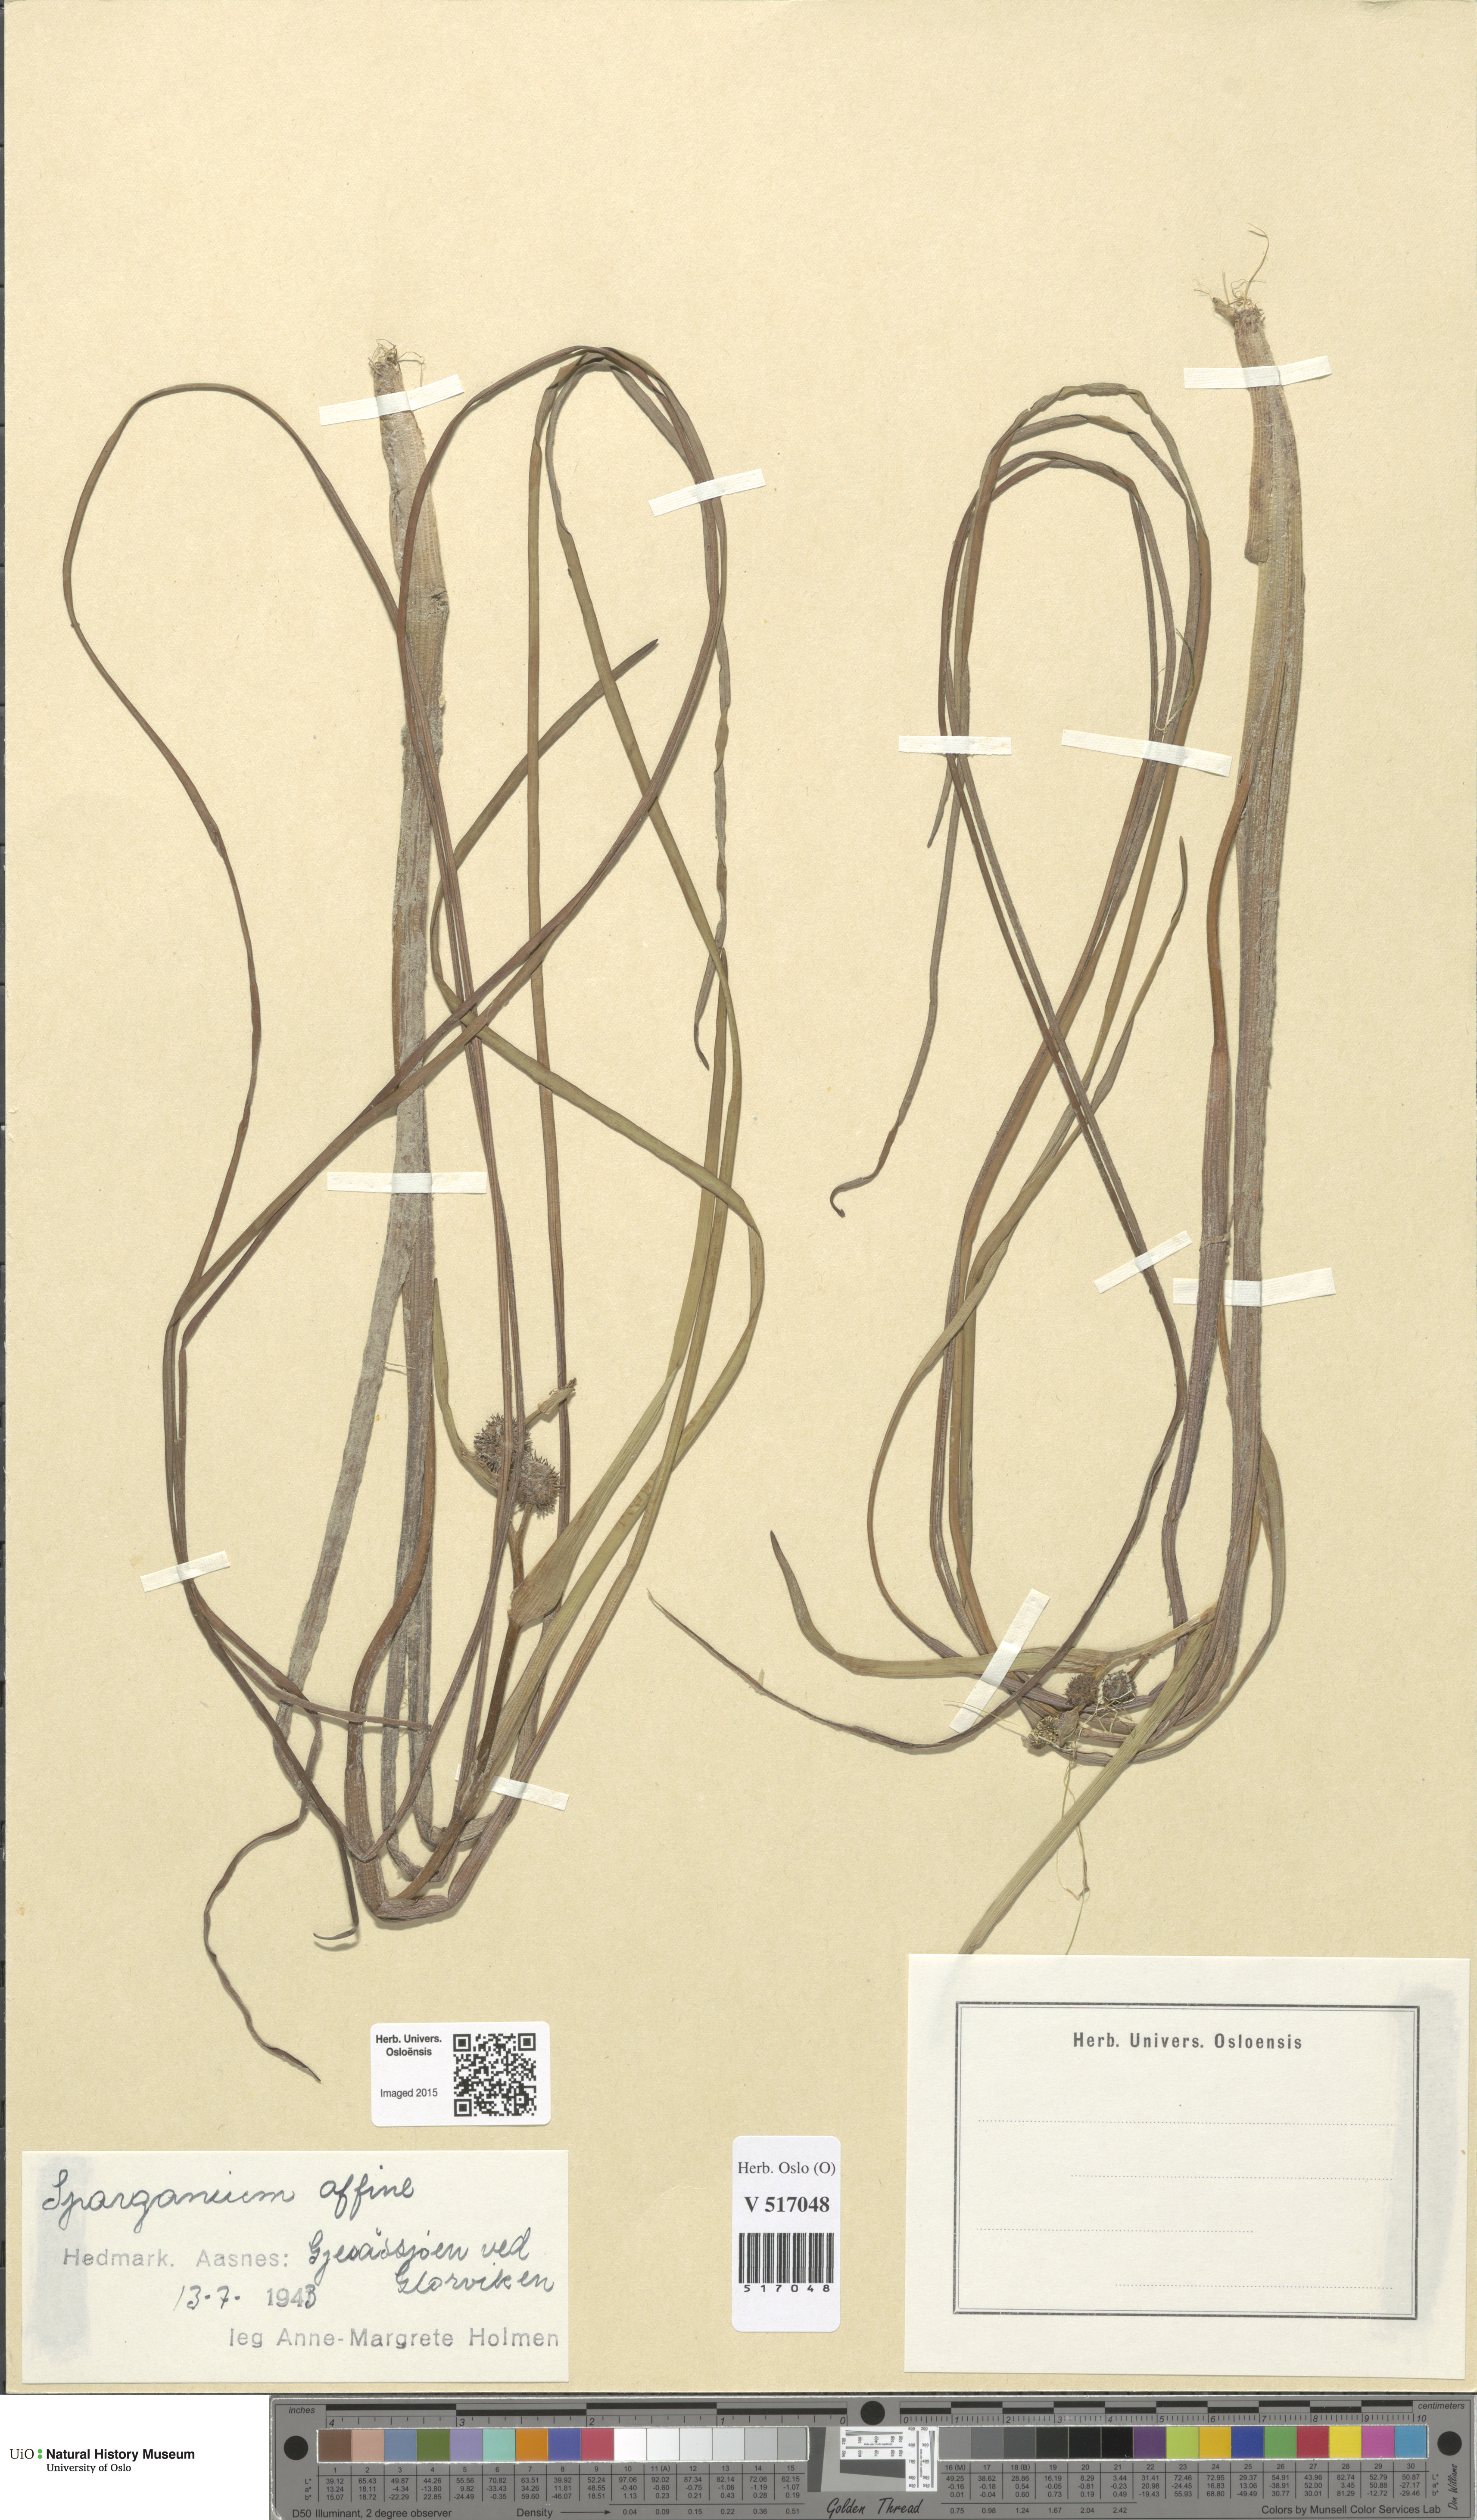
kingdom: Plantae
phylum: Tracheophyta
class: Liliopsida
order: Poales
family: Typhaceae
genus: Sparganium
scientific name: Sparganium angustifolium
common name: Floating bur-reed
